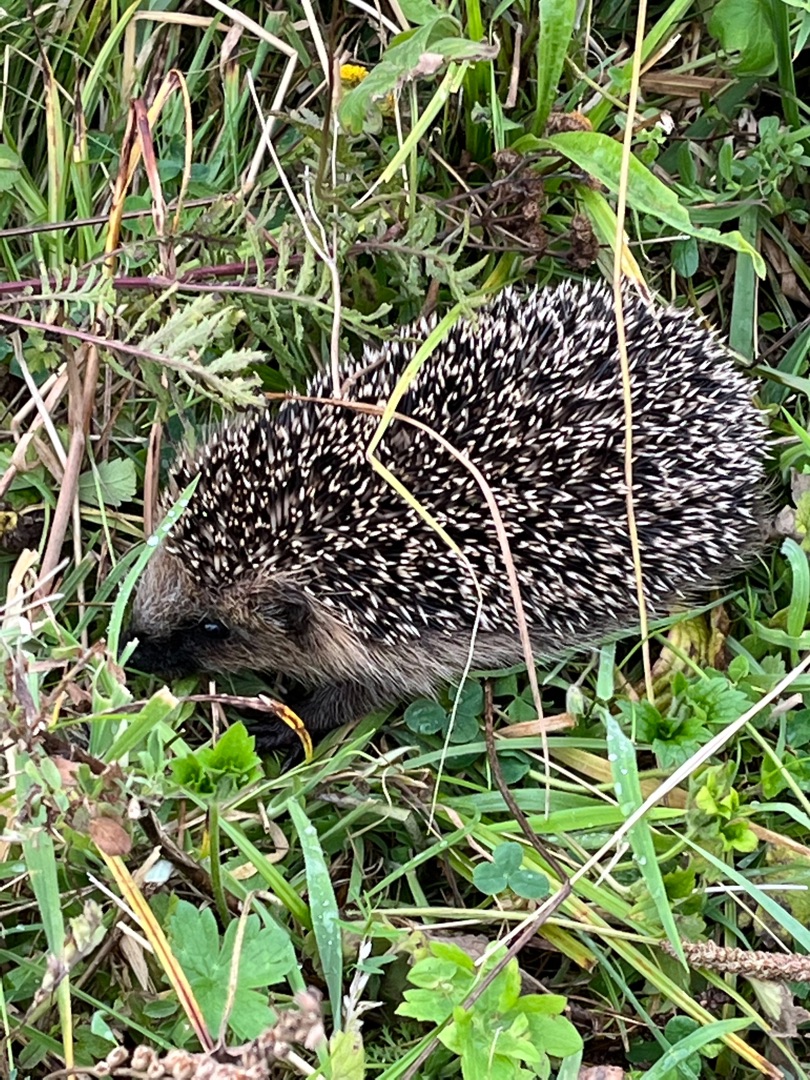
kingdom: Animalia
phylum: Chordata
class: Mammalia
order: Erinaceomorpha
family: Erinaceidae
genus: Erinaceus
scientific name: Erinaceus europaeus
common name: Pindsvin
